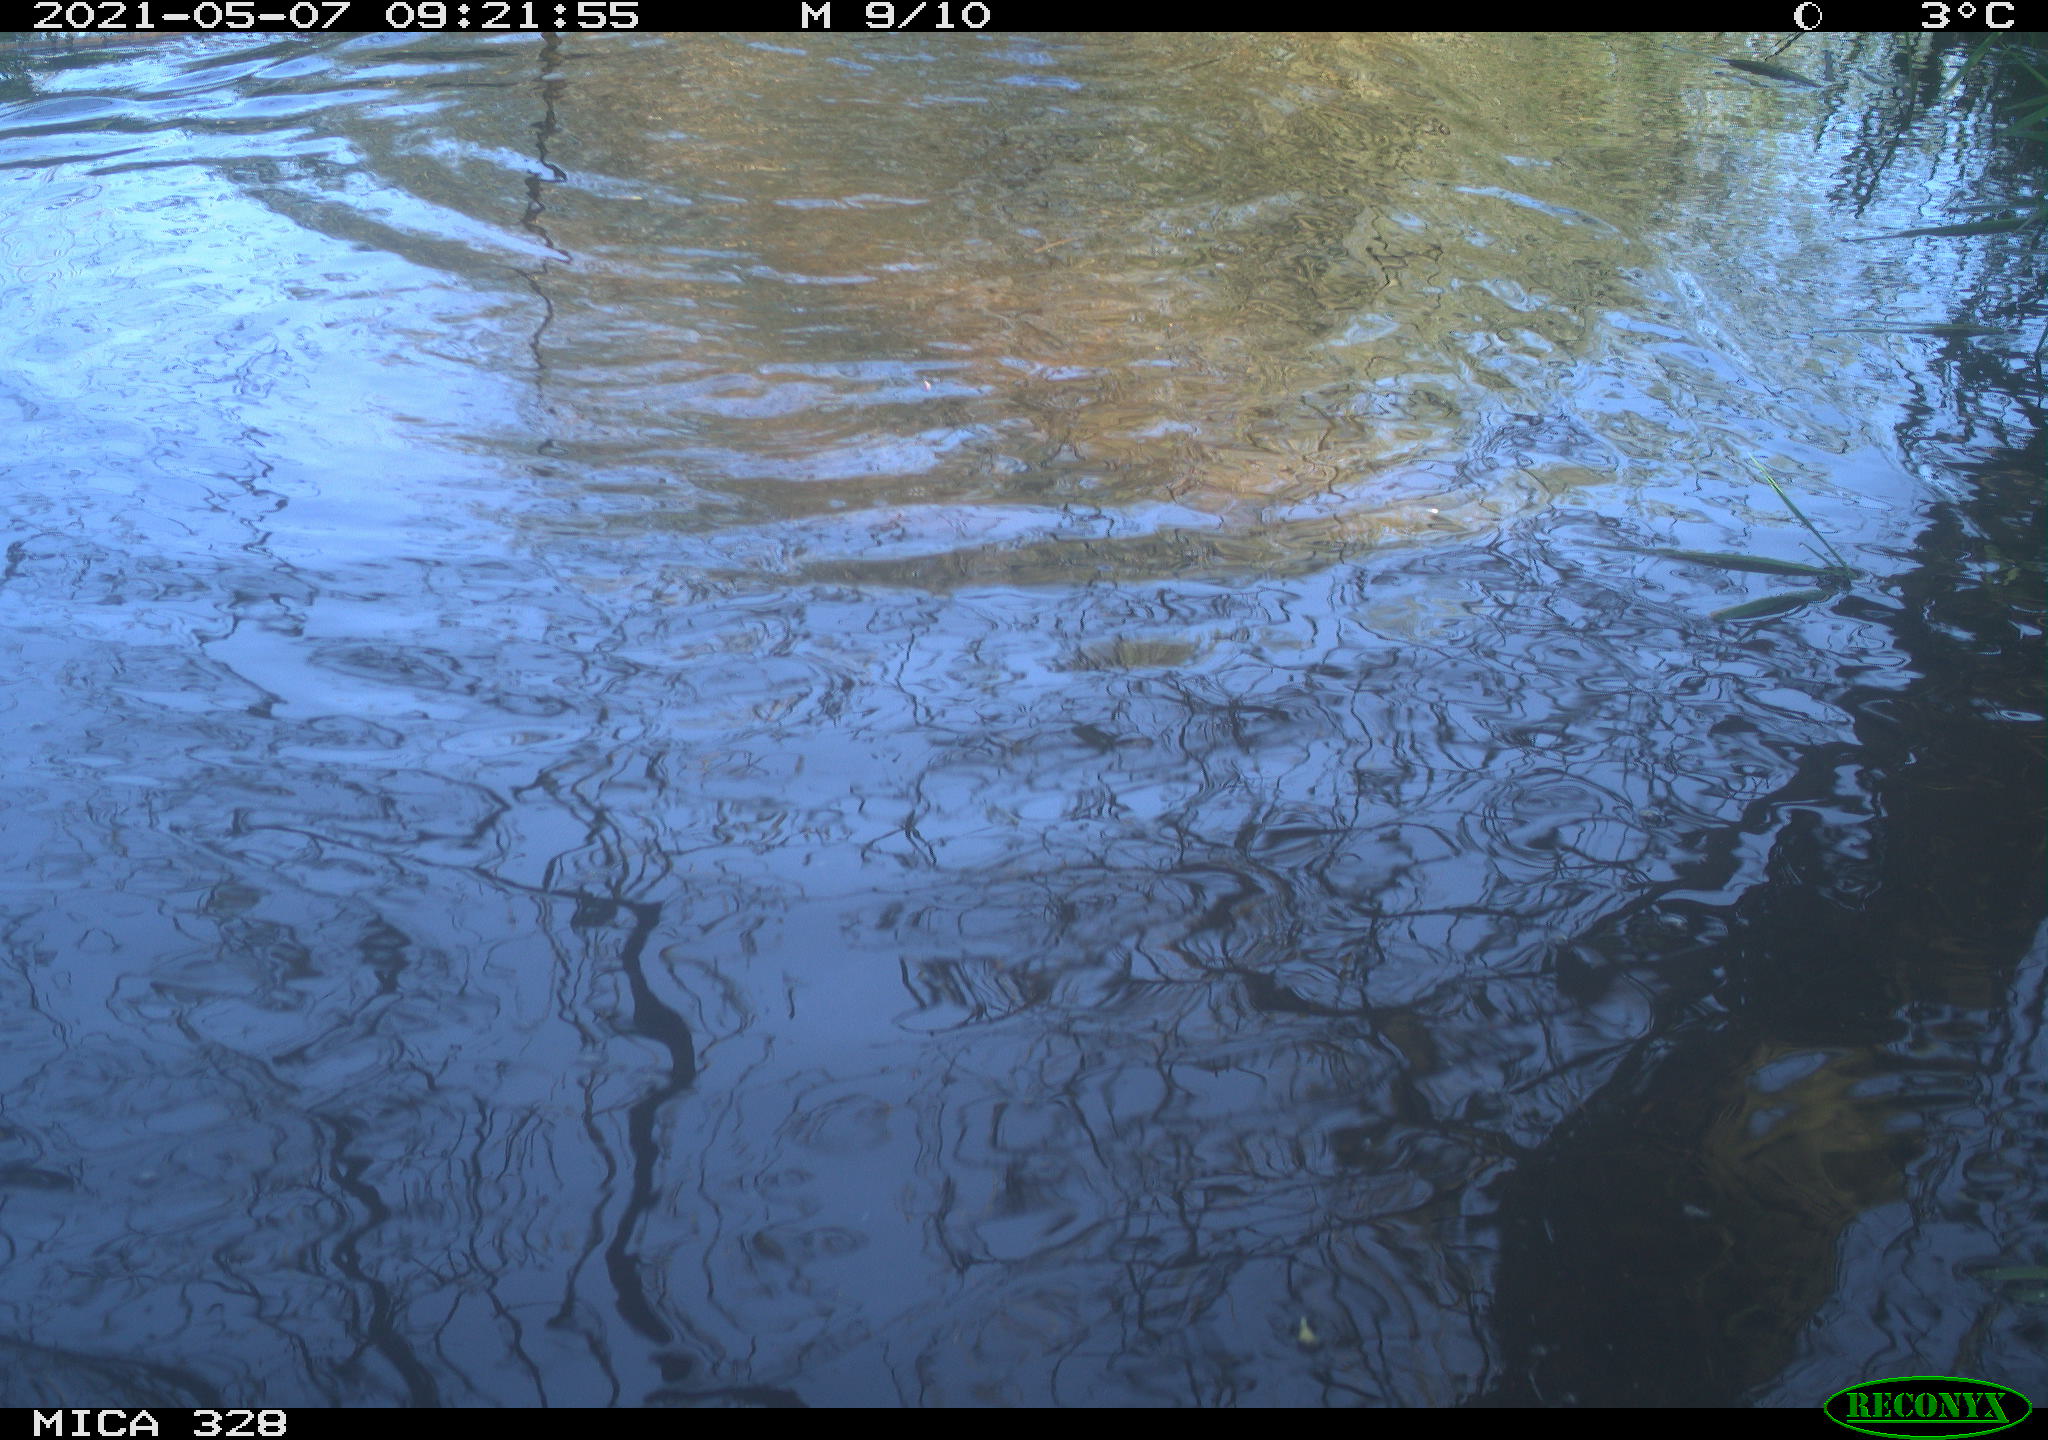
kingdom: Animalia
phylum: Chordata
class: Mammalia
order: Rodentia
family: Cricetidae
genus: Ondatra
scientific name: Ondatra zibethicus
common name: Muskrat
